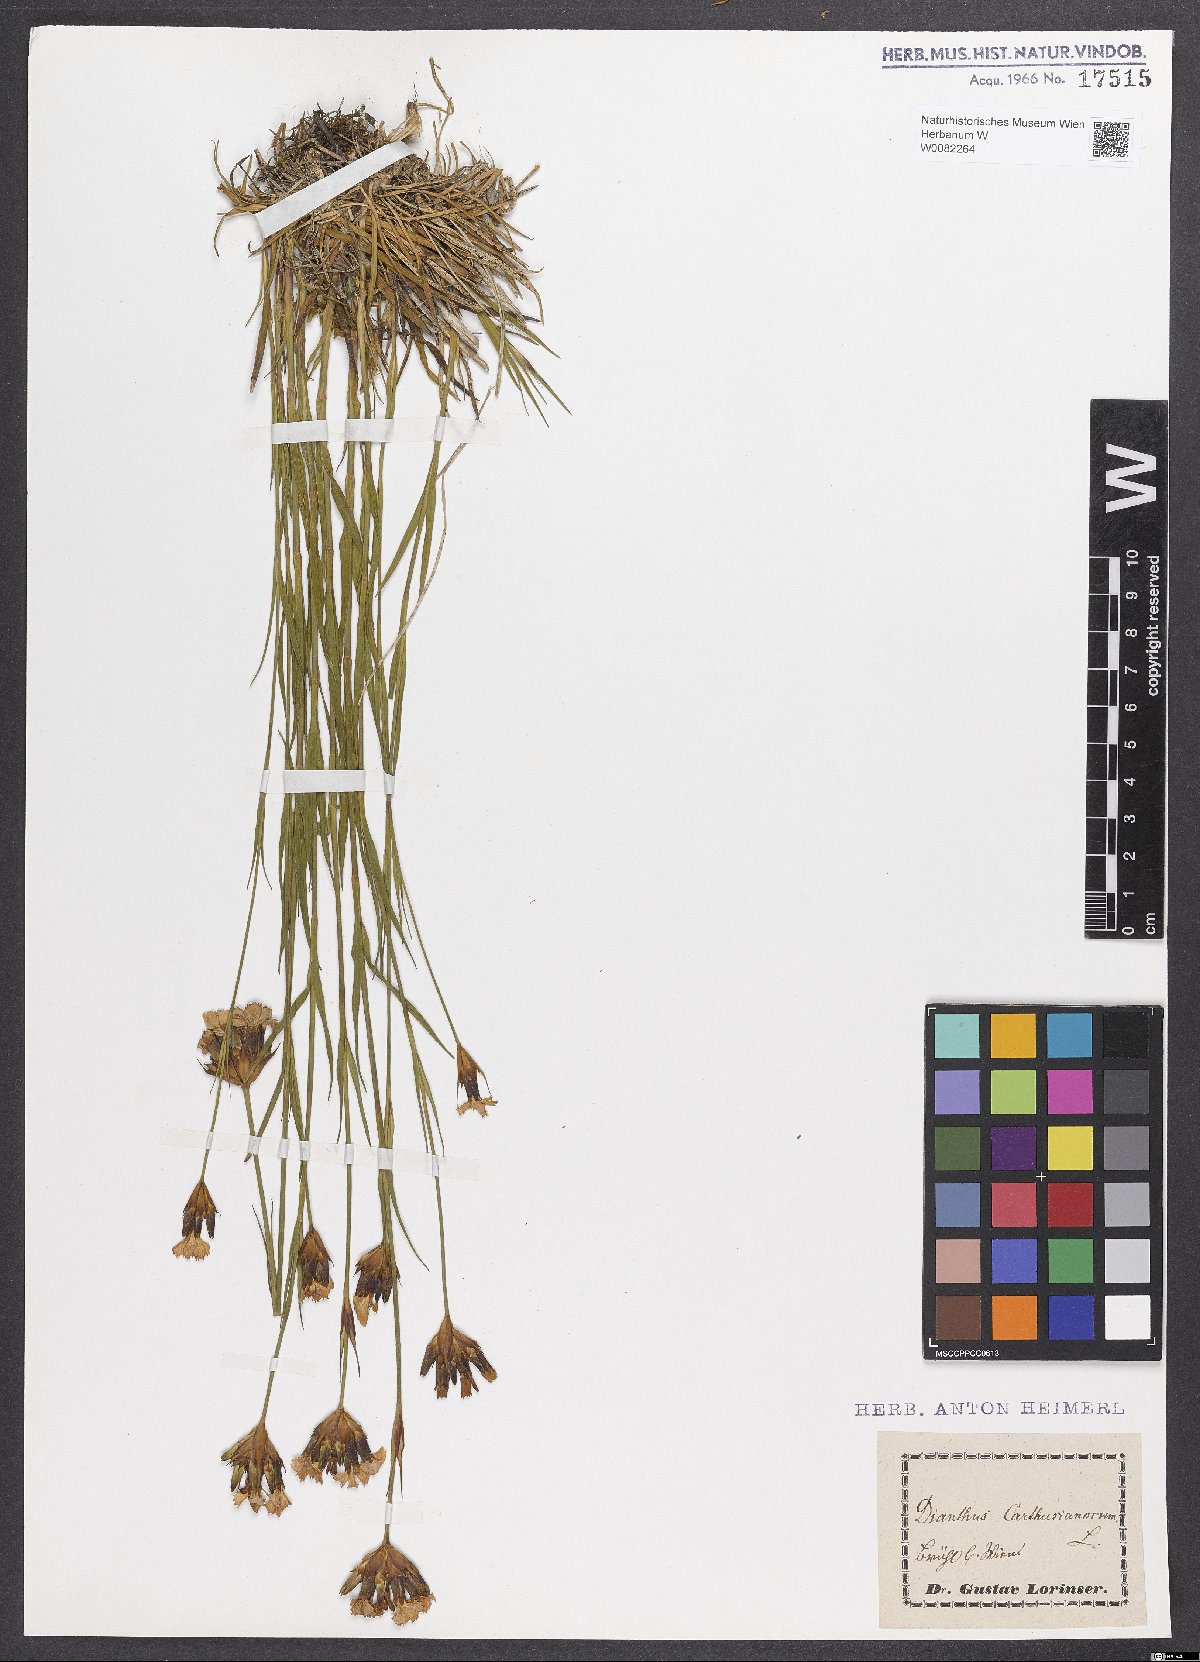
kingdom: Plantae
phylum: Tracheophyta
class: Magnoliopsida
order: Caryophyllales
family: Caryophyllaceae
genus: Dianthus
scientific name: Dianthus carthusianorum
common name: Carthusian pink
